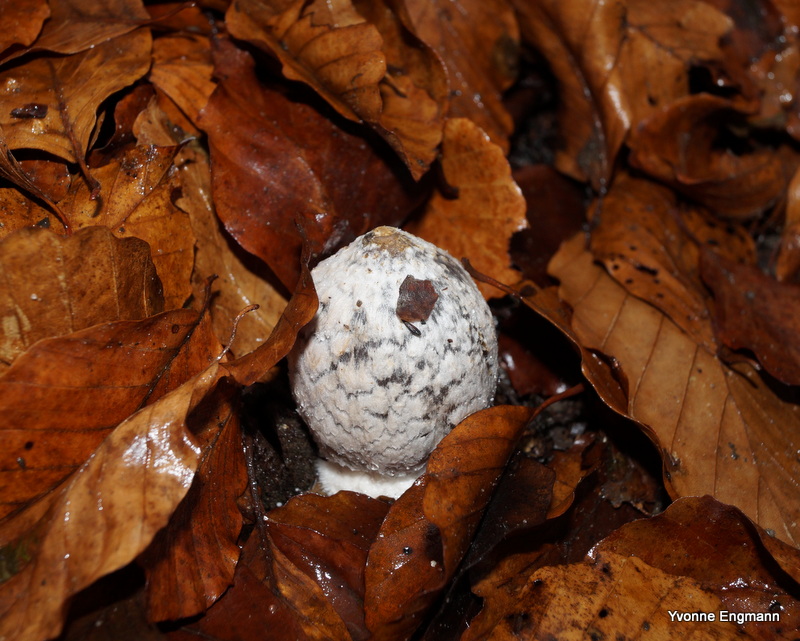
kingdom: Fungi
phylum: Basidiomycota
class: Agaricomycetes
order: Agaricales
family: Psathyrellaceae
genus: Coprinopsis
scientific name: Coprinopsis picacea
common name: skade-blækhat
